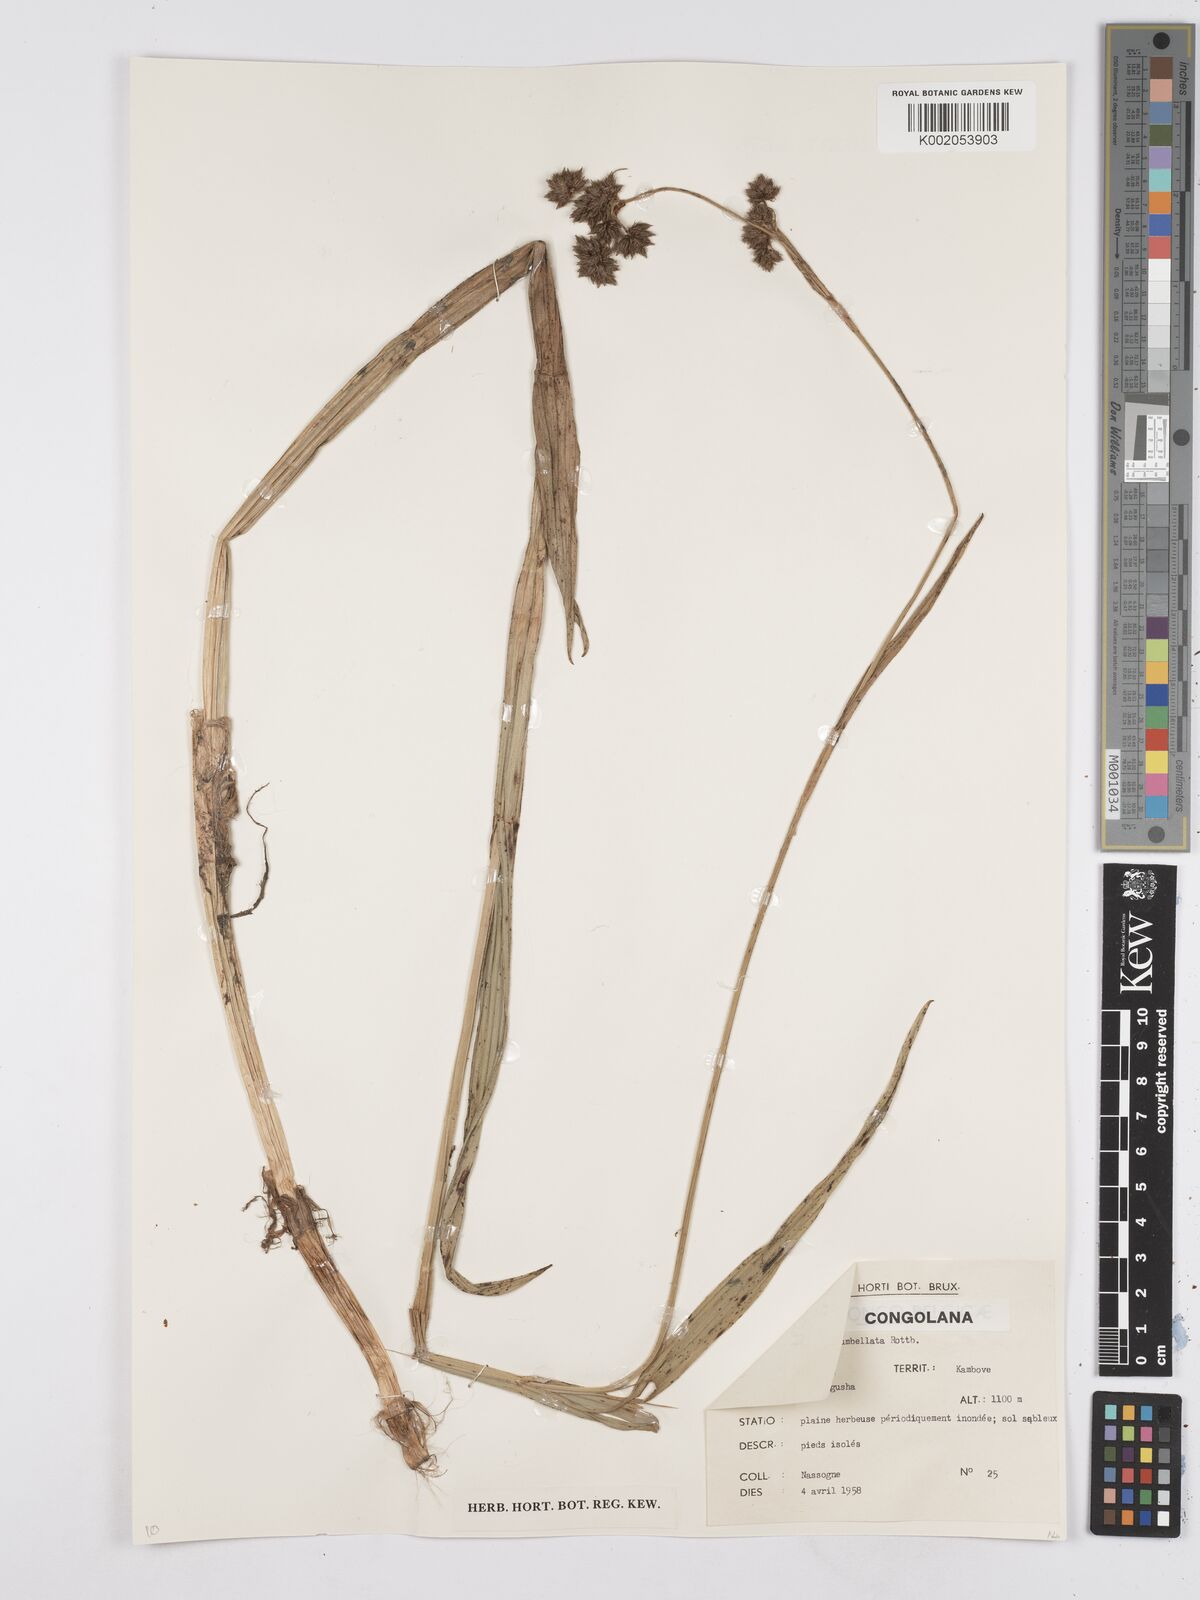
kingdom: Plantae
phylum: Tracheophyta
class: Liliopsida
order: Poales
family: Cyperaceae
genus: Fuirena
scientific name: Fuirena umbellata
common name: Yefen
